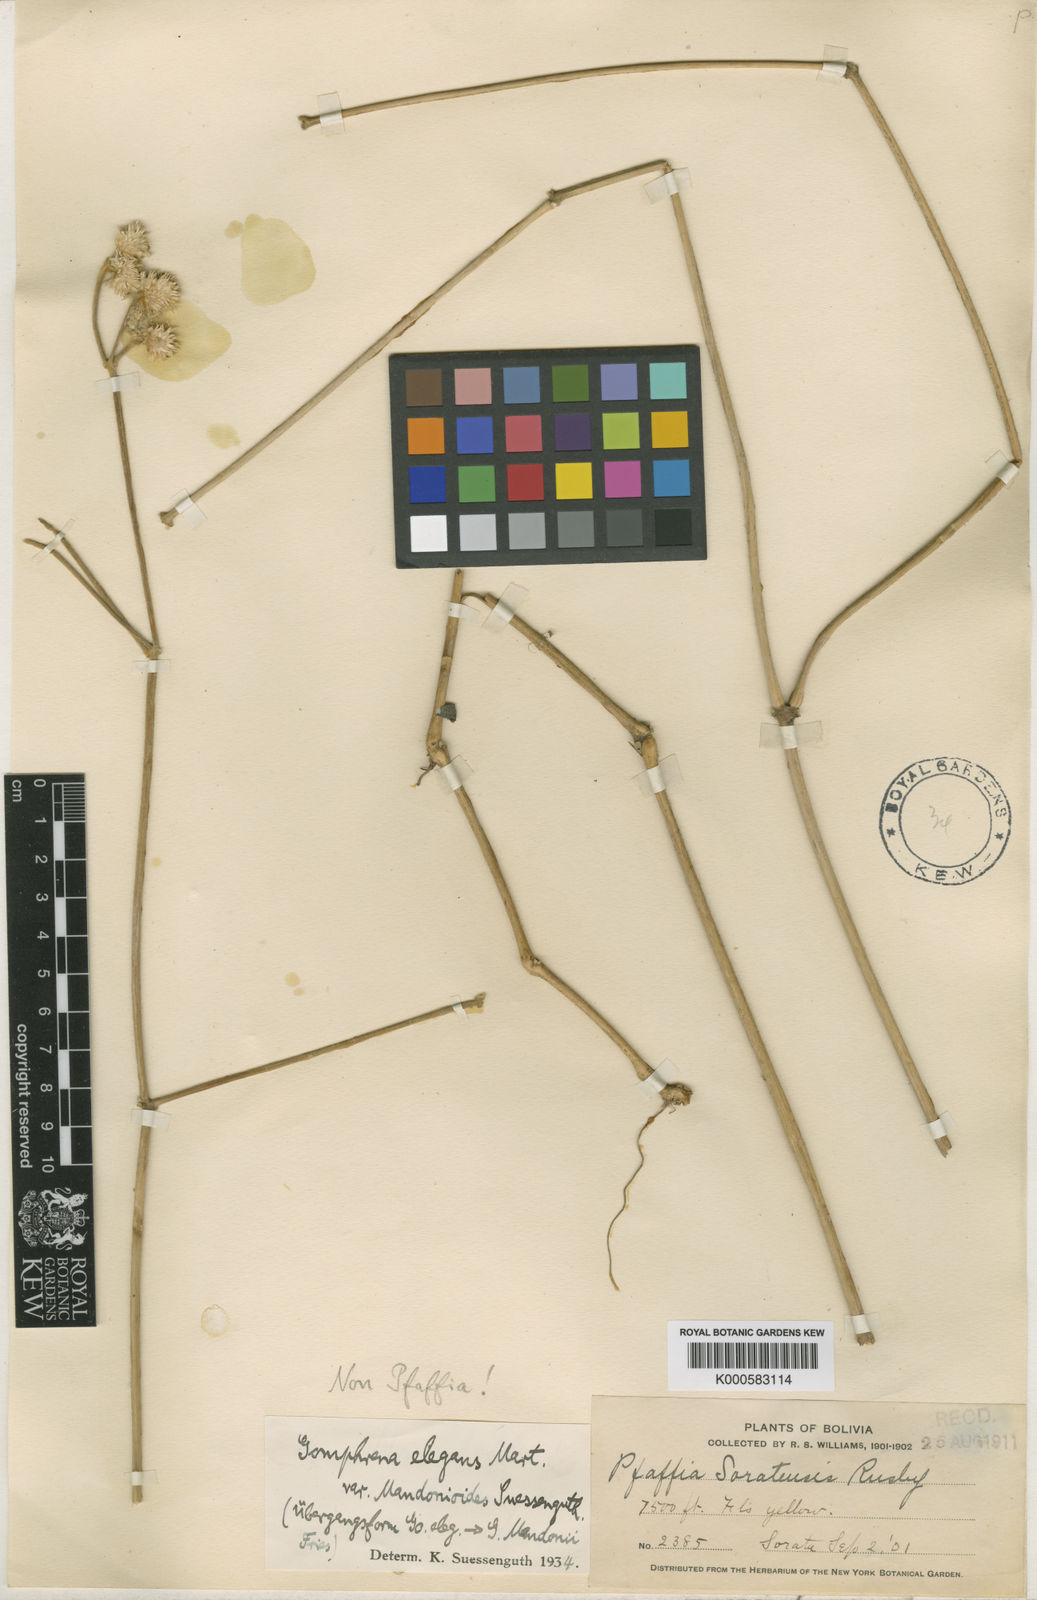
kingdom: Plantae
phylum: Tracheophyta
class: Magnoliopsida
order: Caryophyllales
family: Amaranthaceae
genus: Gomphrena
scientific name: Gomphrena elegans
